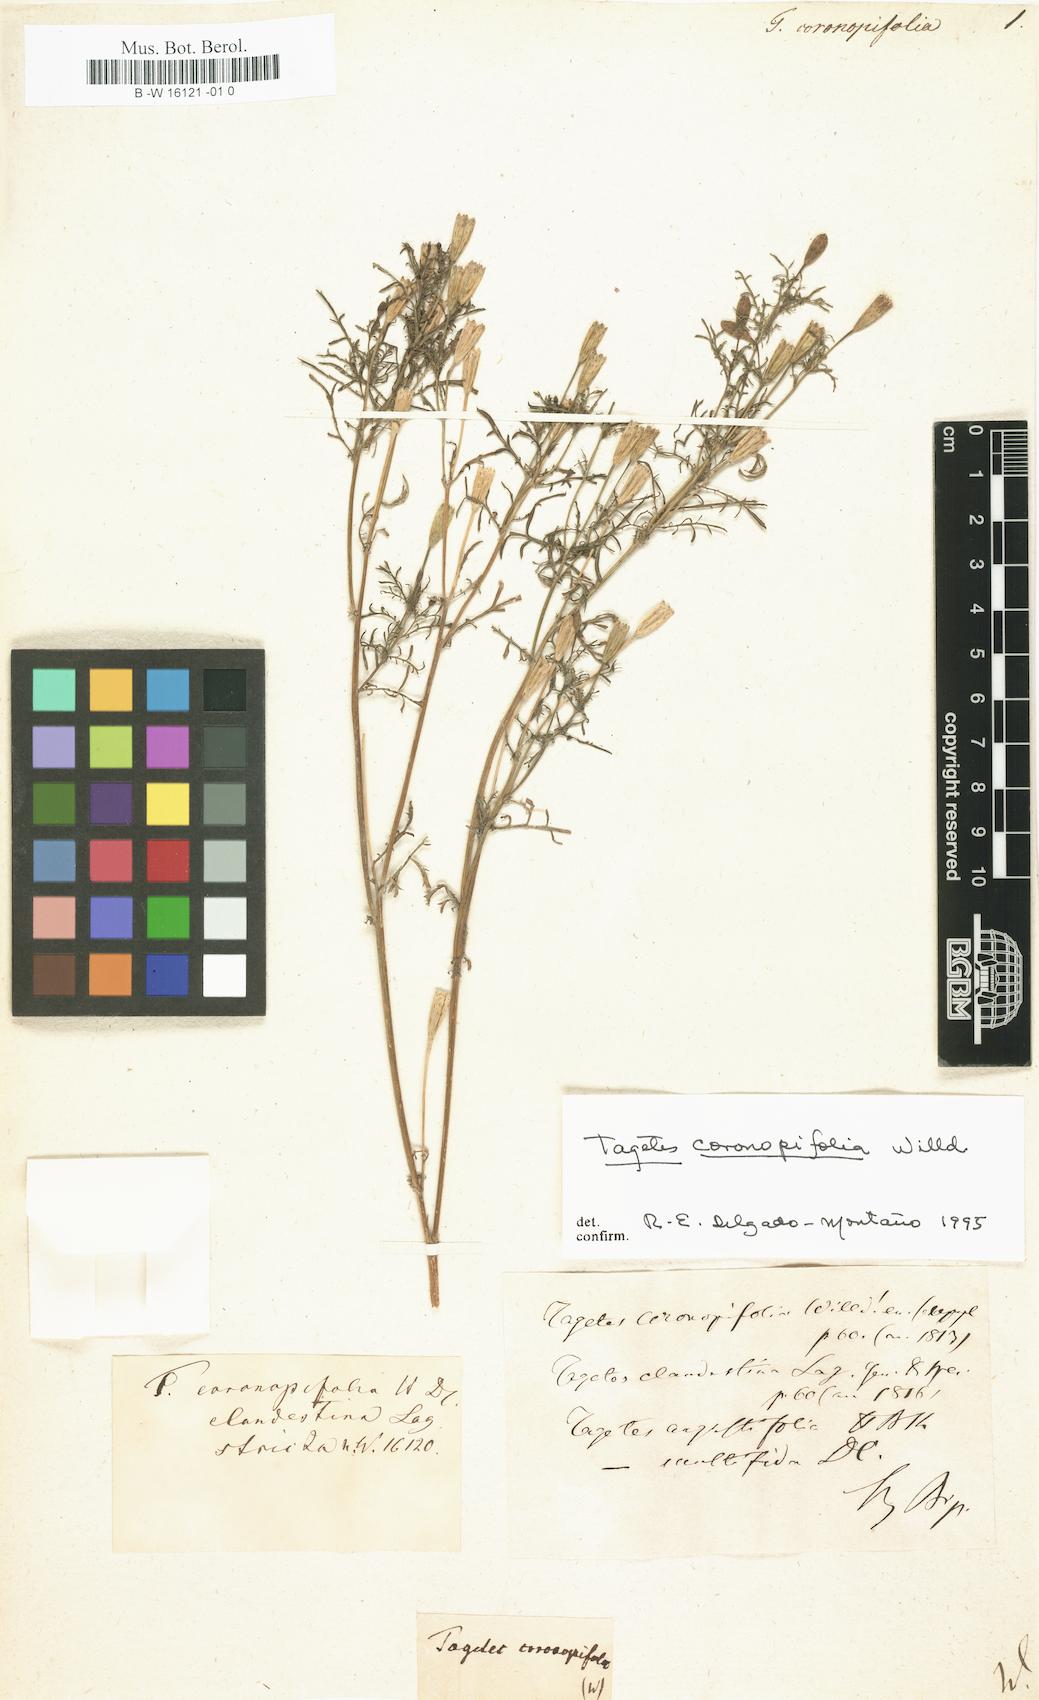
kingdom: Plantae
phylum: Tracheophyta
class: Magnoliopsida
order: Asterales
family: Asteraceae
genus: Tagetes
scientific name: Tagetes coronopifolia
